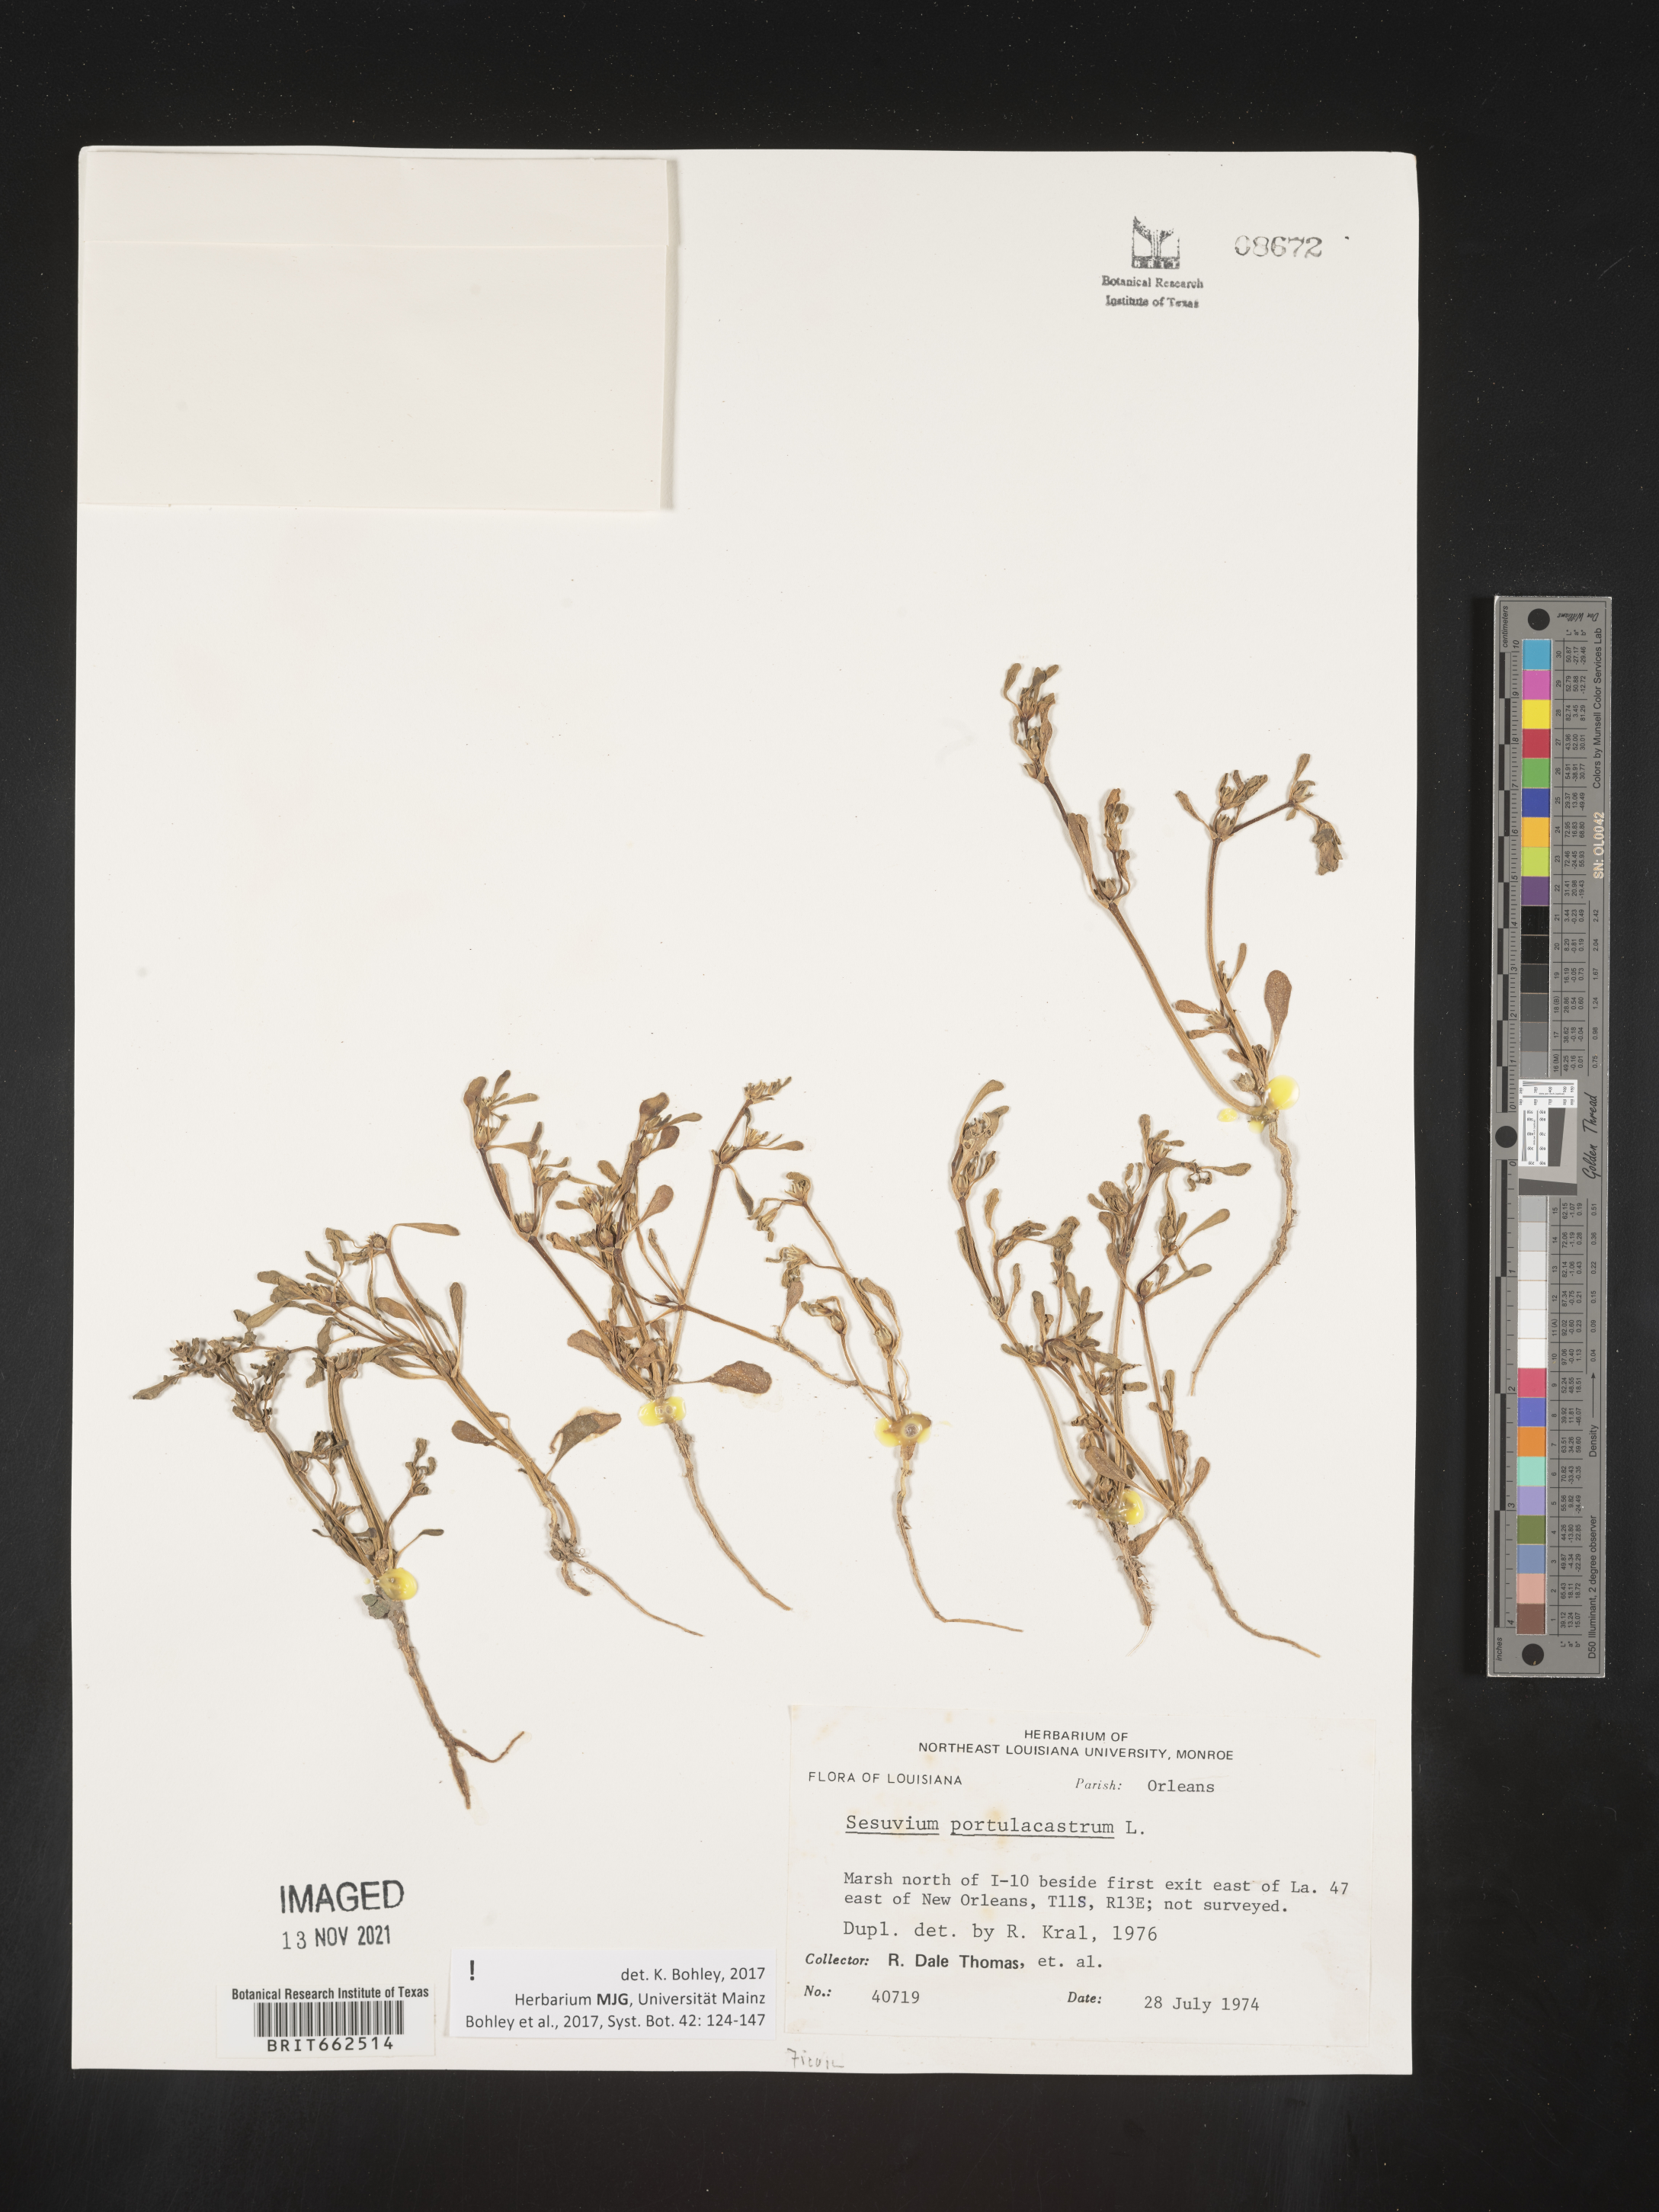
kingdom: Plantae
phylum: Tracheophyta
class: Magnoliopsida
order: Caryophyllales
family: Aizoaceae
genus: Sesuvium
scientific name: Sesuvium portulacastrum
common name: Sea-purslane
